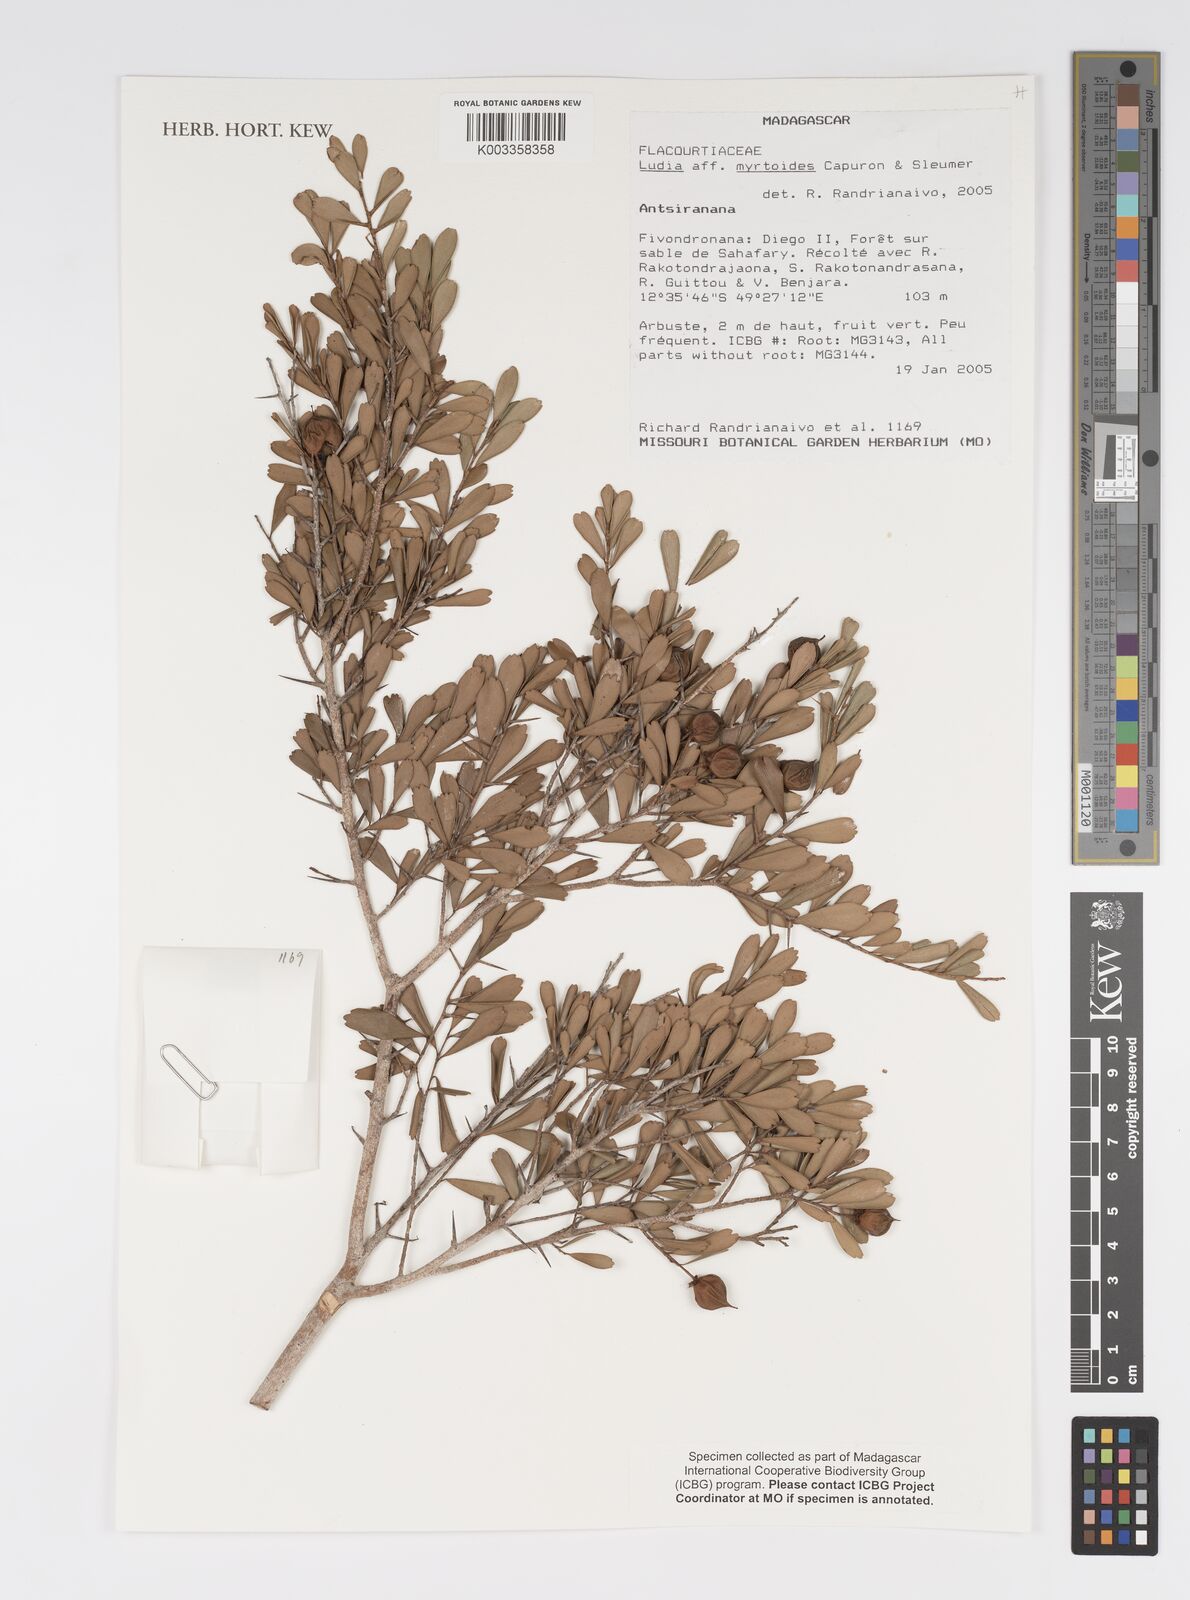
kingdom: Plantae
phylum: Tracheophyta
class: Magnoliopsida
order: Malpighiales
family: Salicaceae
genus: Scolopia
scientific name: Scolopia heterophylla
